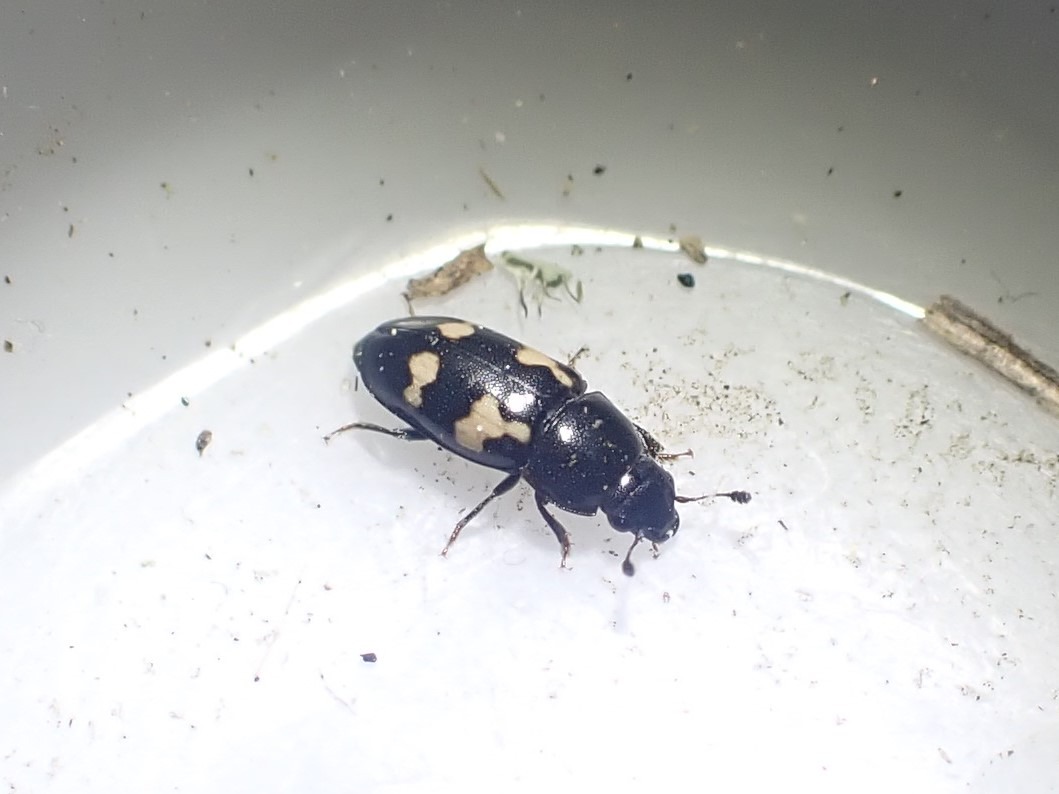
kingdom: Animalia
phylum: Arthropoda
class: Insecta
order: Coleoptera
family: Nitidulidae
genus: Glischrochilus
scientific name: Glischrochilus quadriguttatus
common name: Fireplettet glansbille
